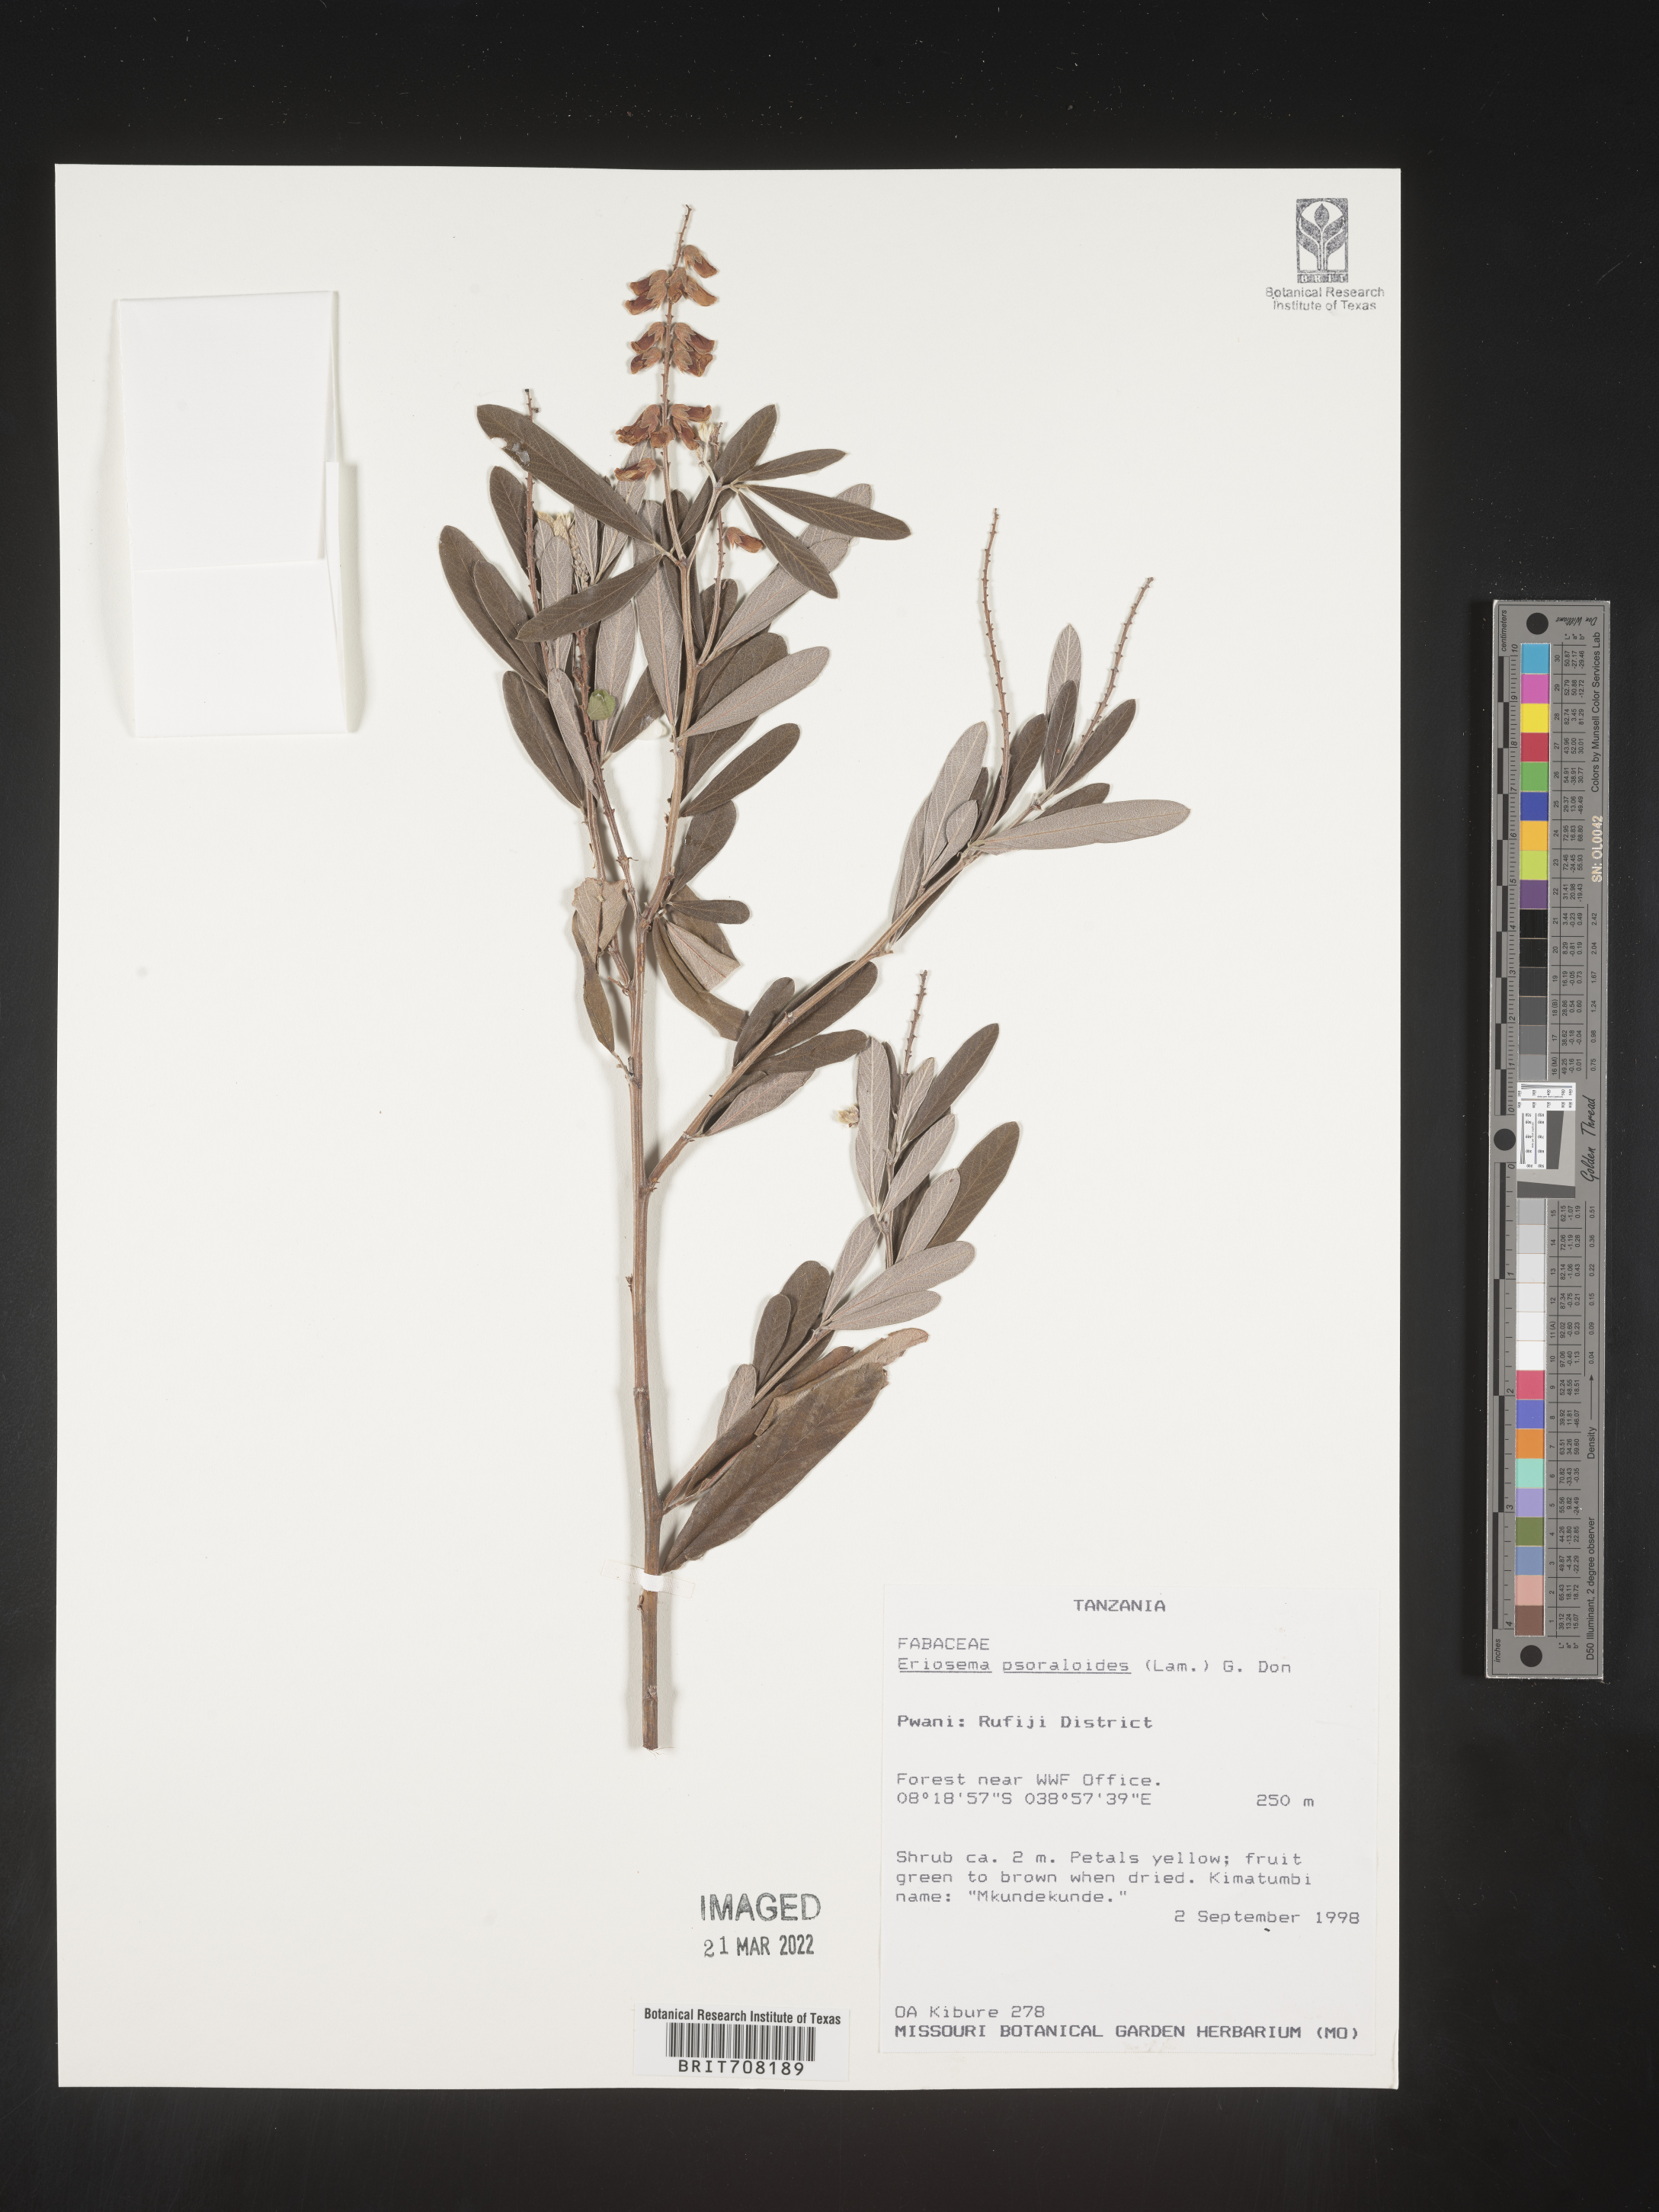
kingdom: Plantae
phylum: Tracheophyta
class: Magnoliopsida
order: Fabales
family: Fabaceae
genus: Eriosema
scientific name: Eriosema
